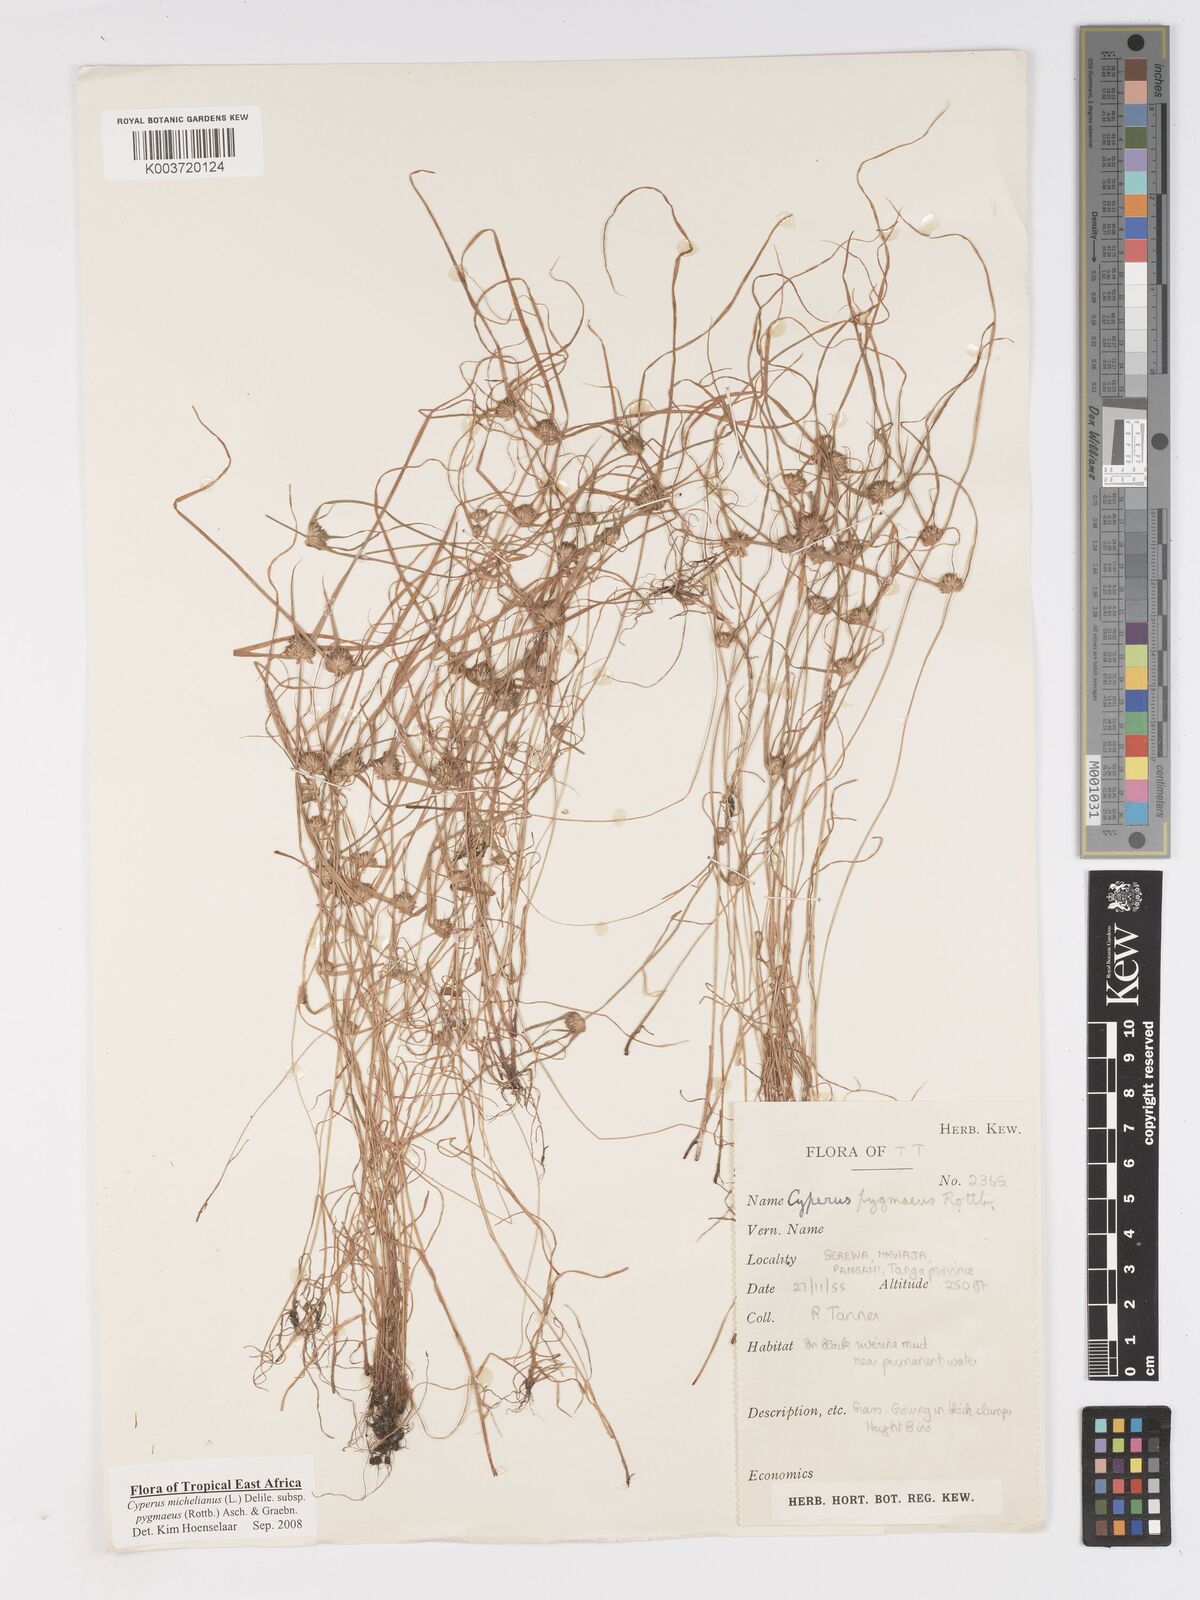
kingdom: Plantae
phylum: Tracheophyta
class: Liliopsida
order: Poales
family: Cyperaceae
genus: Cyperus
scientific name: Cyperus michelianus
